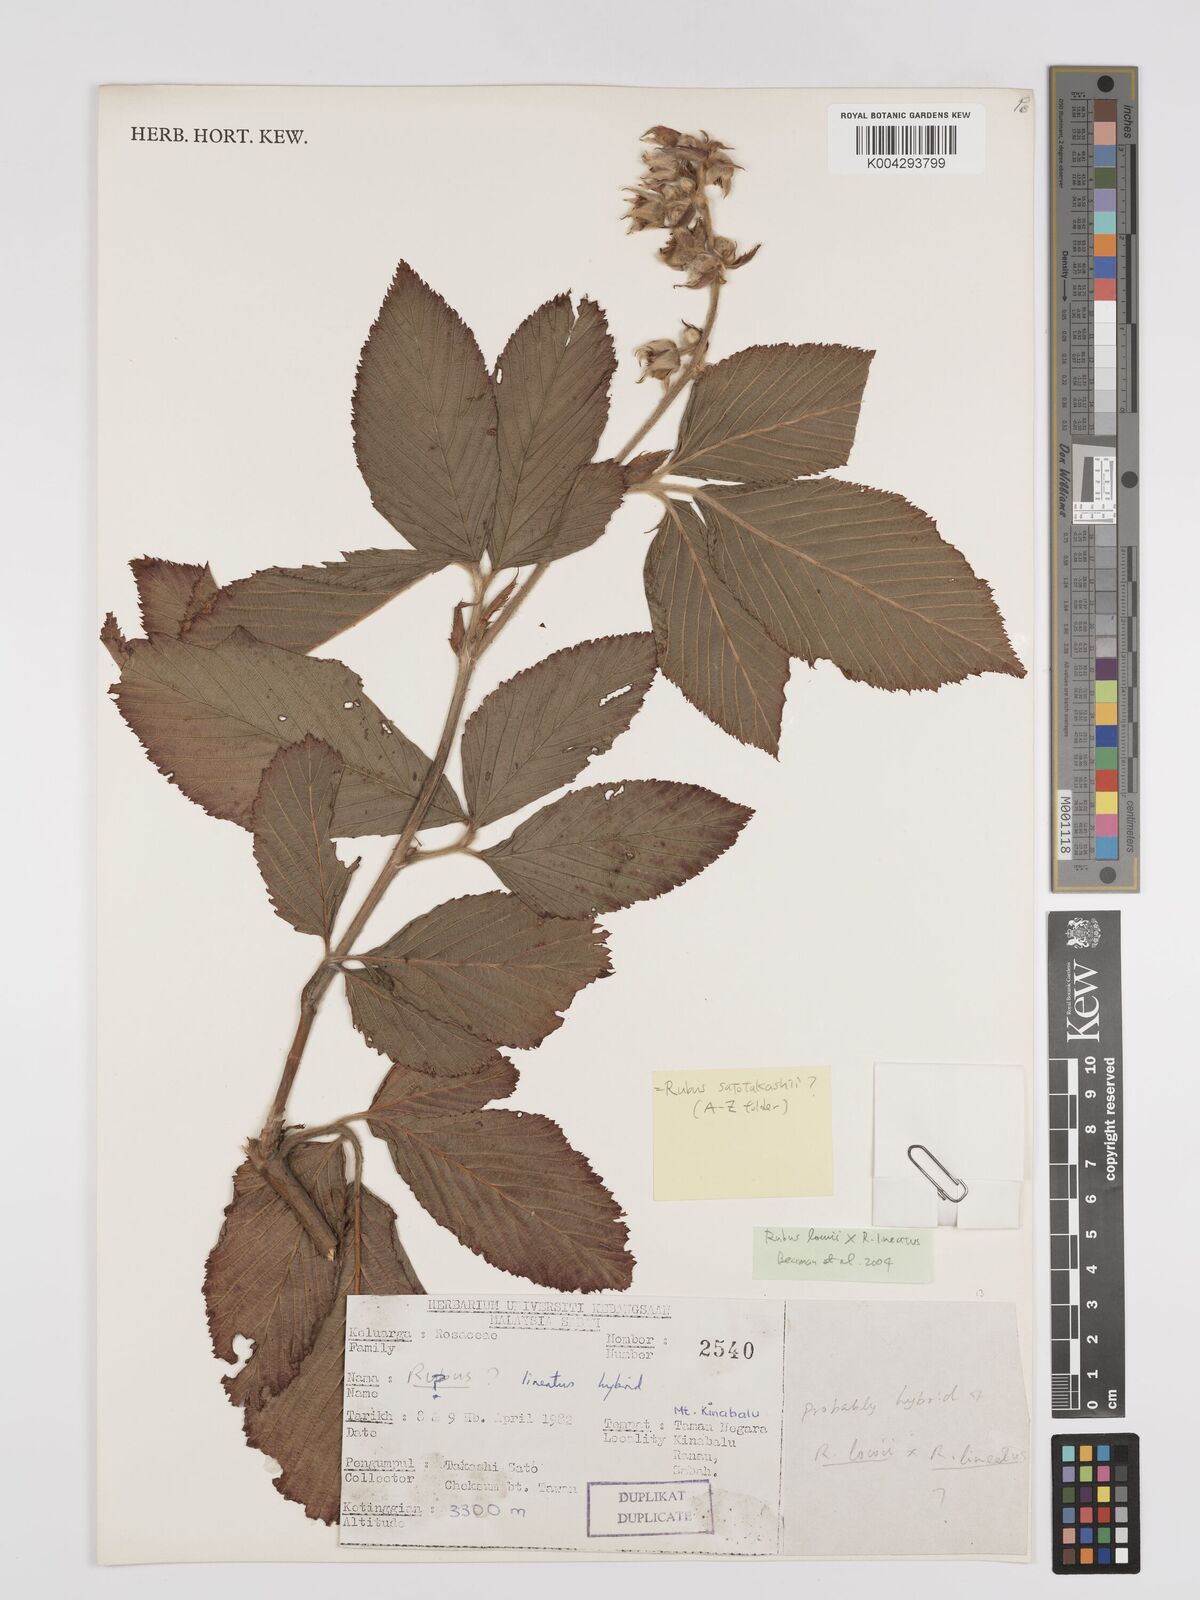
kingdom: Plantae
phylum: Tracheophyta
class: Magnoliopsida
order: Rosales
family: Rosaceae
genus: Rubus
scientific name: Rubus lowii
